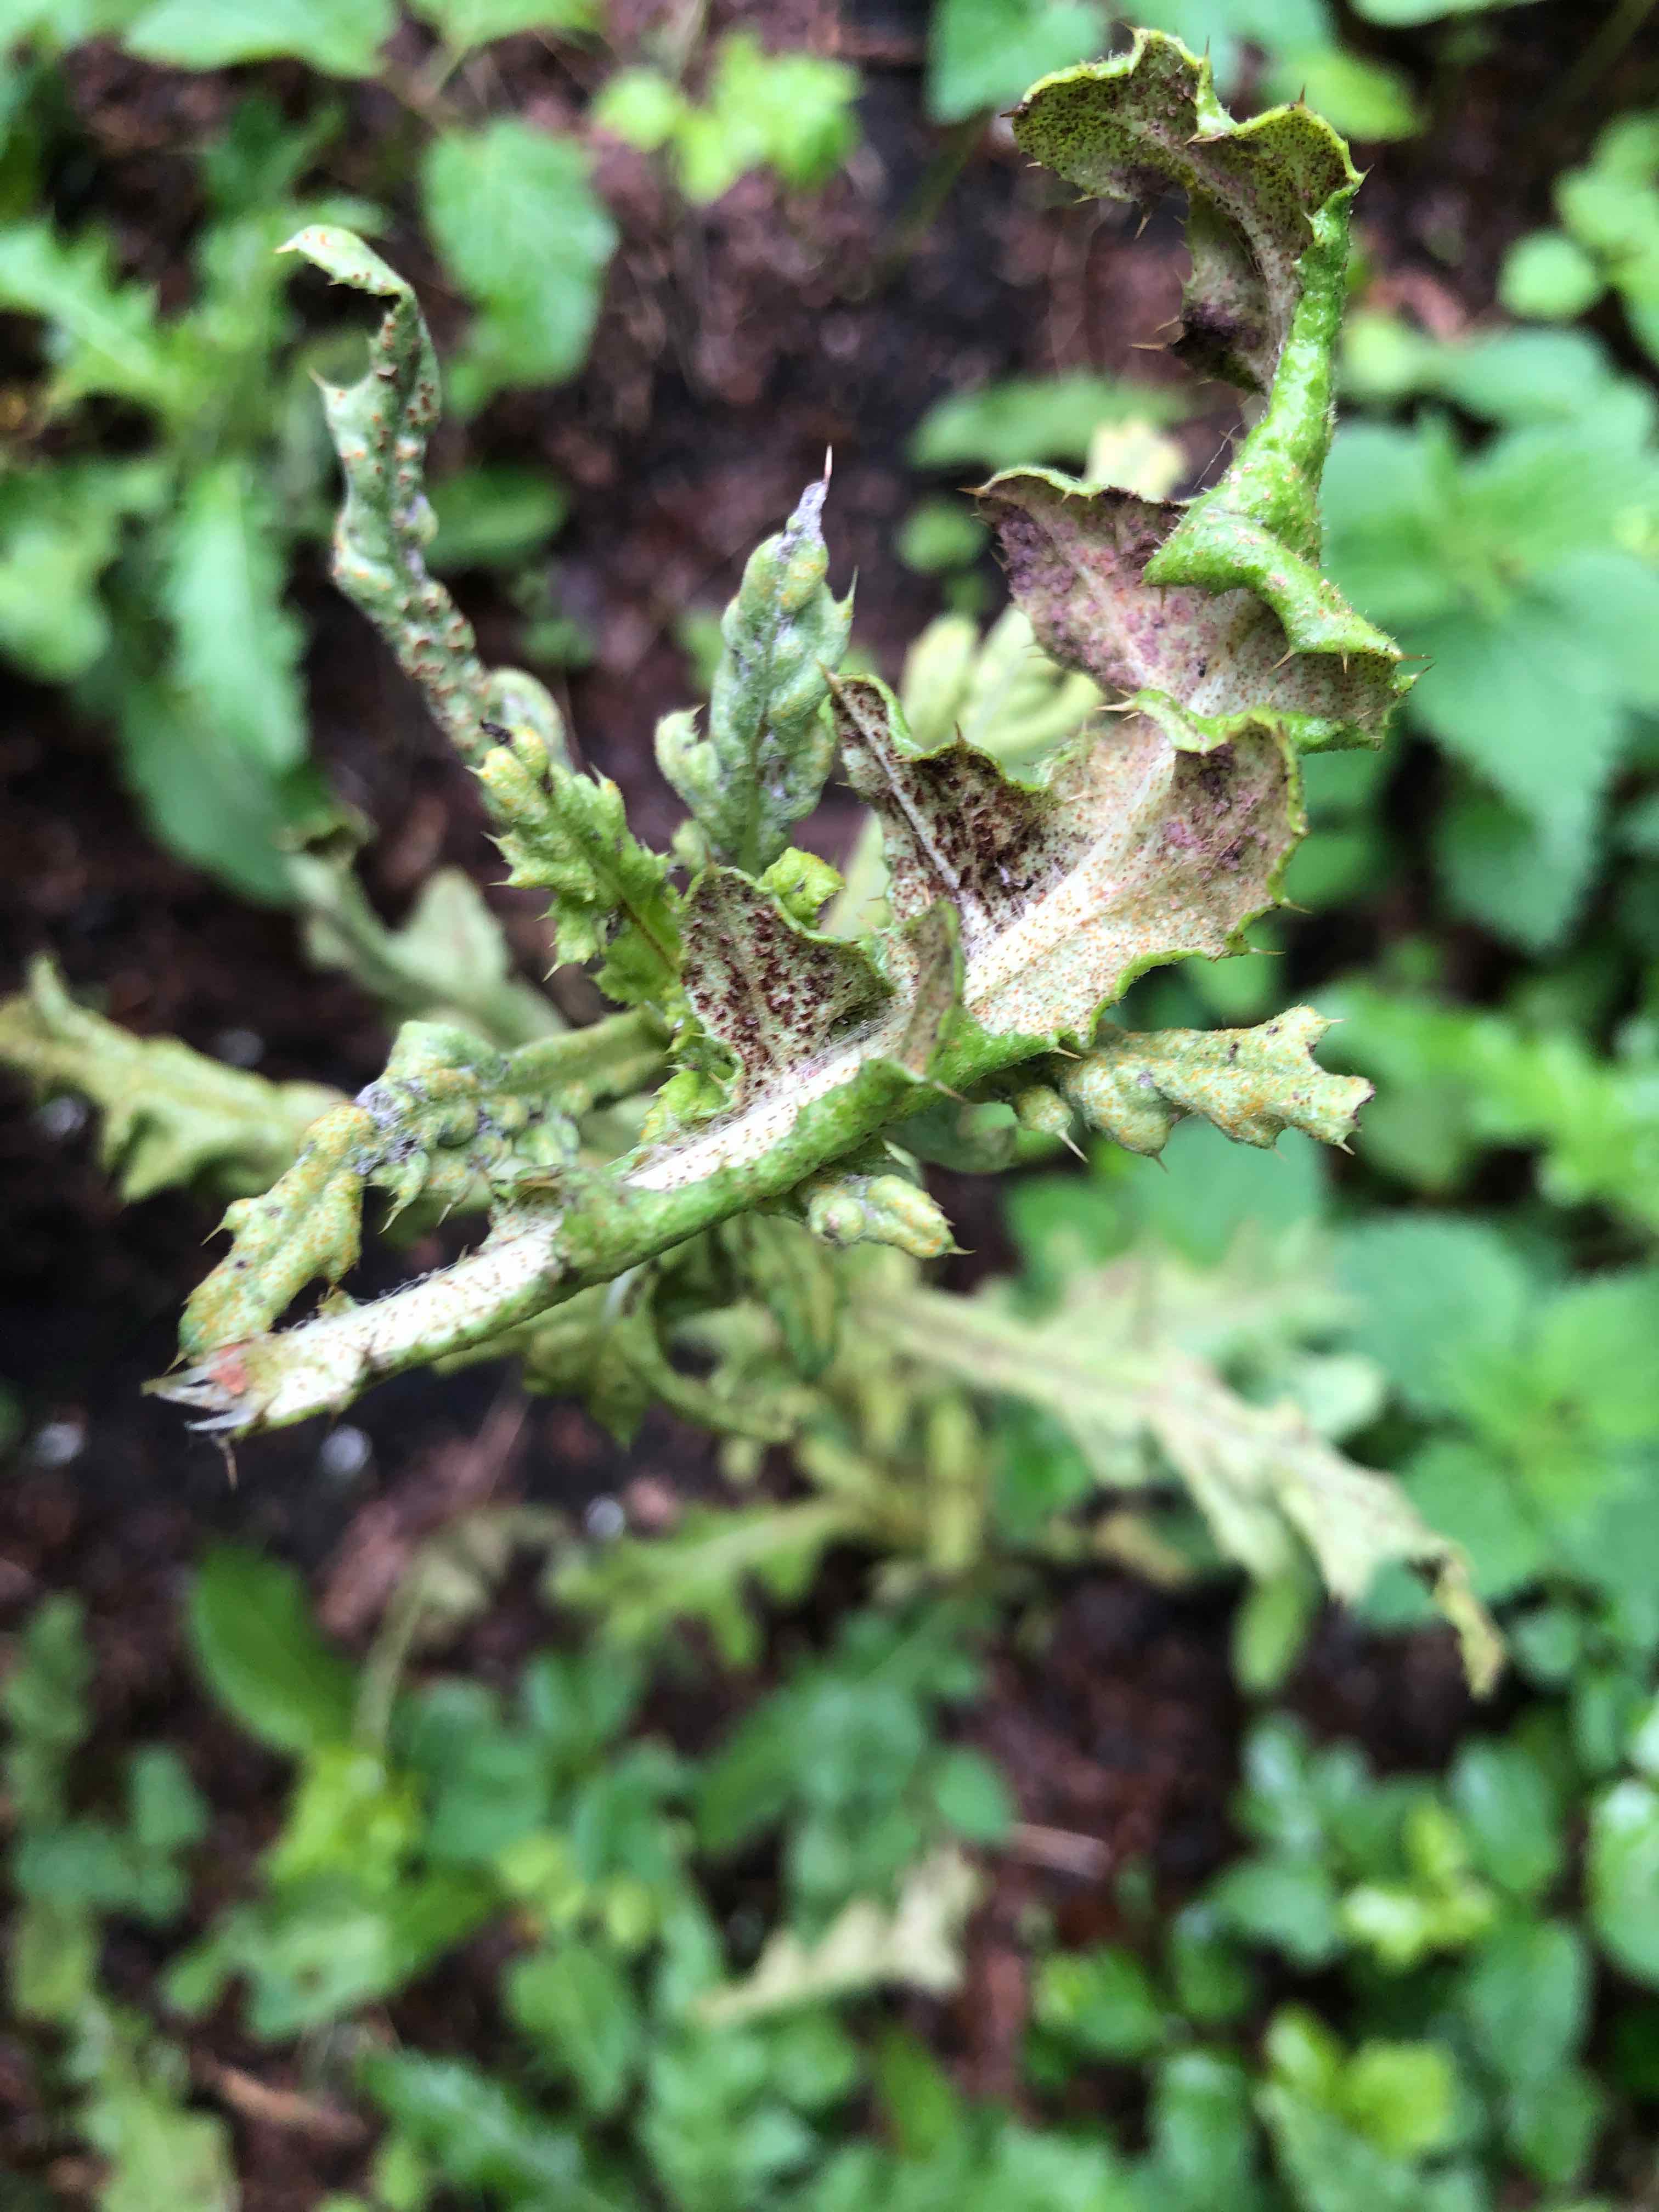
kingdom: Fungi
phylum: Basidiomycota
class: Pucciniomycetes
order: Pucciniales
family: Pucciniaceae
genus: Puccinia
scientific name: Puccinia suaveolens
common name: tidsel-tvecellerust
